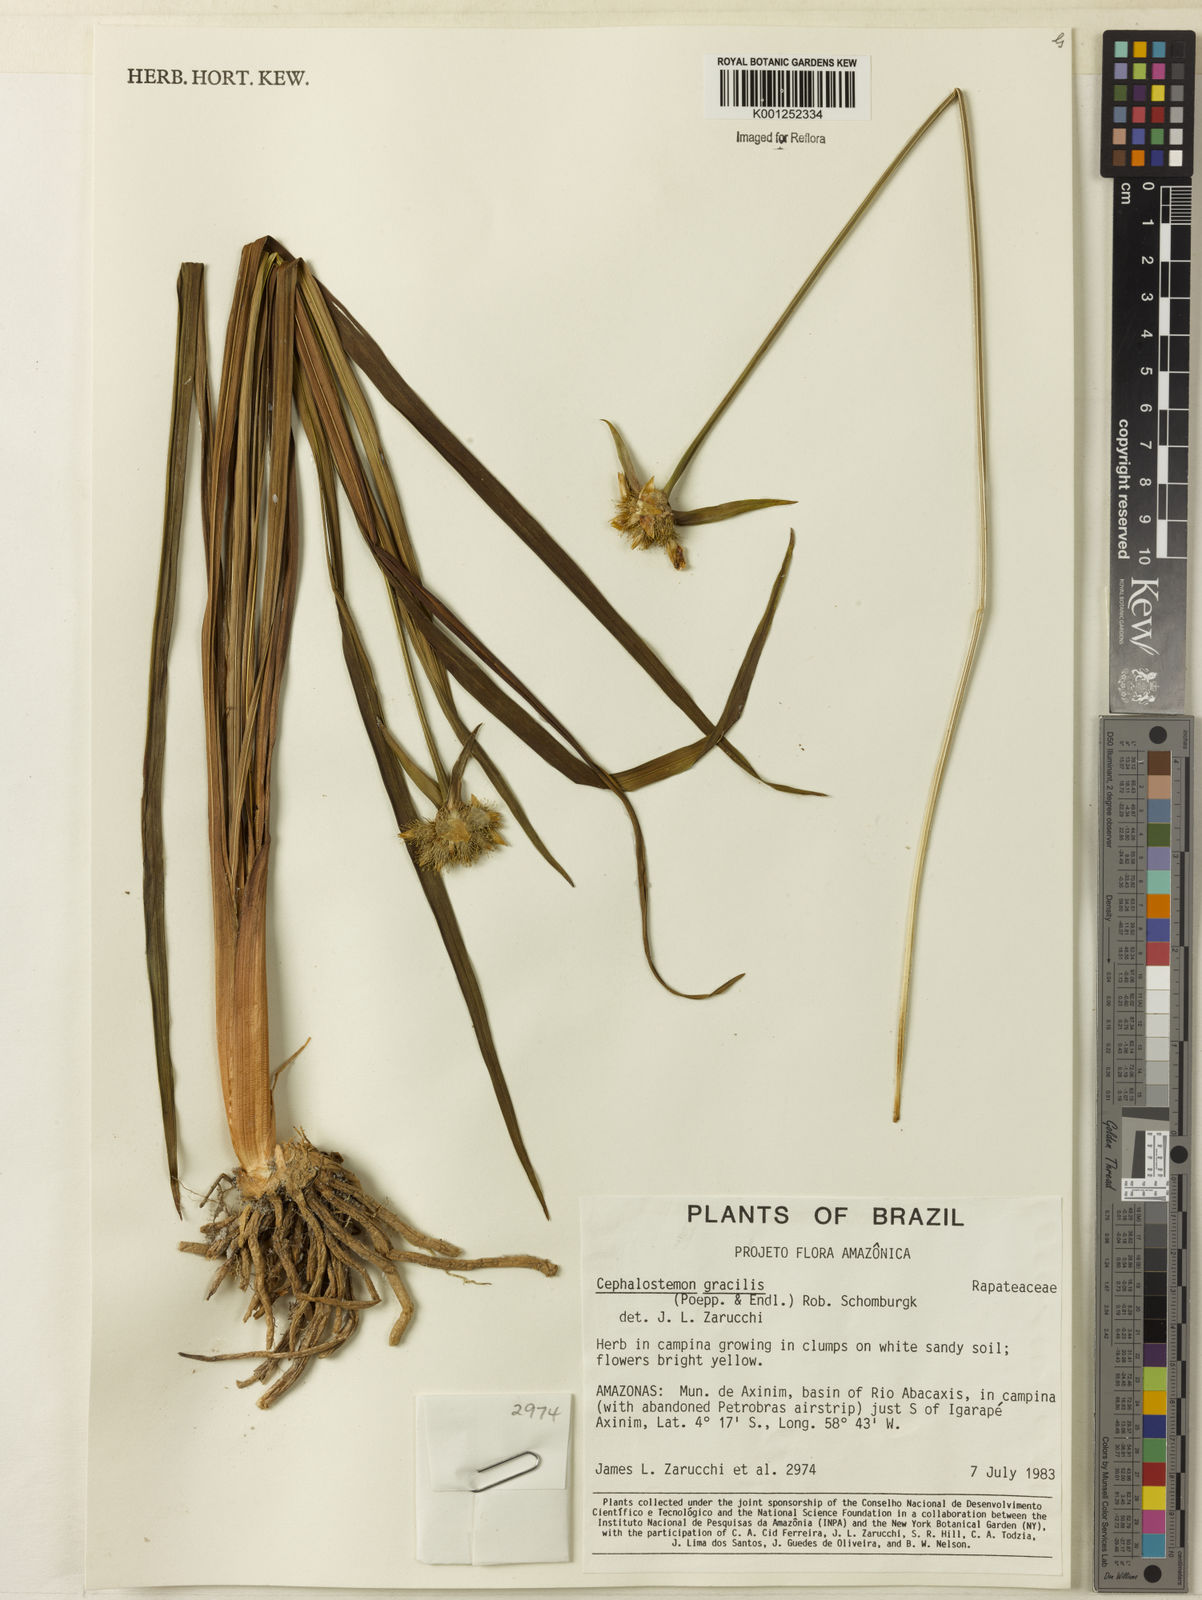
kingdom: Plantae
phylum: Tracheophyta
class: Liliopsida
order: Poales
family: Rapateaceae
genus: Cephalostemon
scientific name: Cephalostemon gracilis
